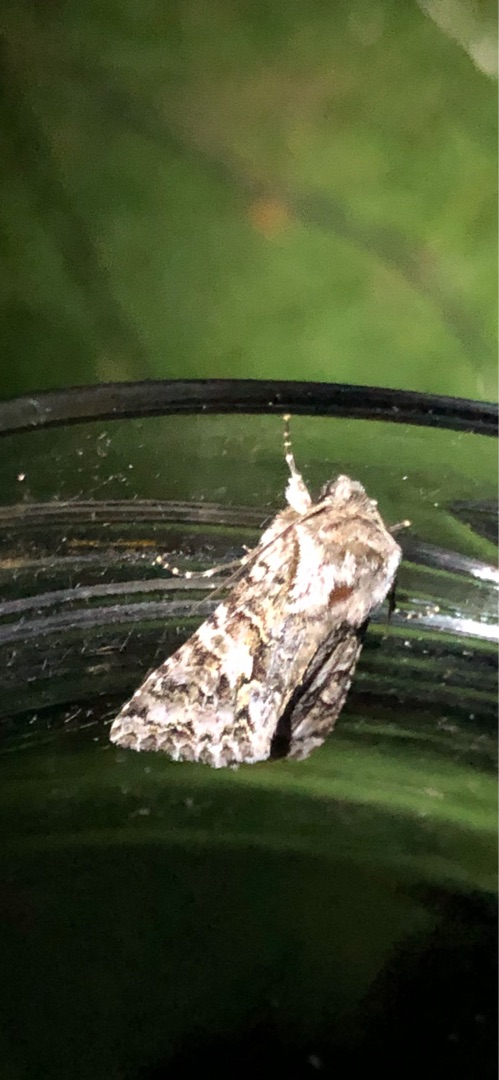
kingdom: Animalia
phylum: Arthropoda
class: Insecta
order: Lepidoptera
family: Noctuidae
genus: Hada
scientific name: Hada plebeja
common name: Kurvblomst-ugle
